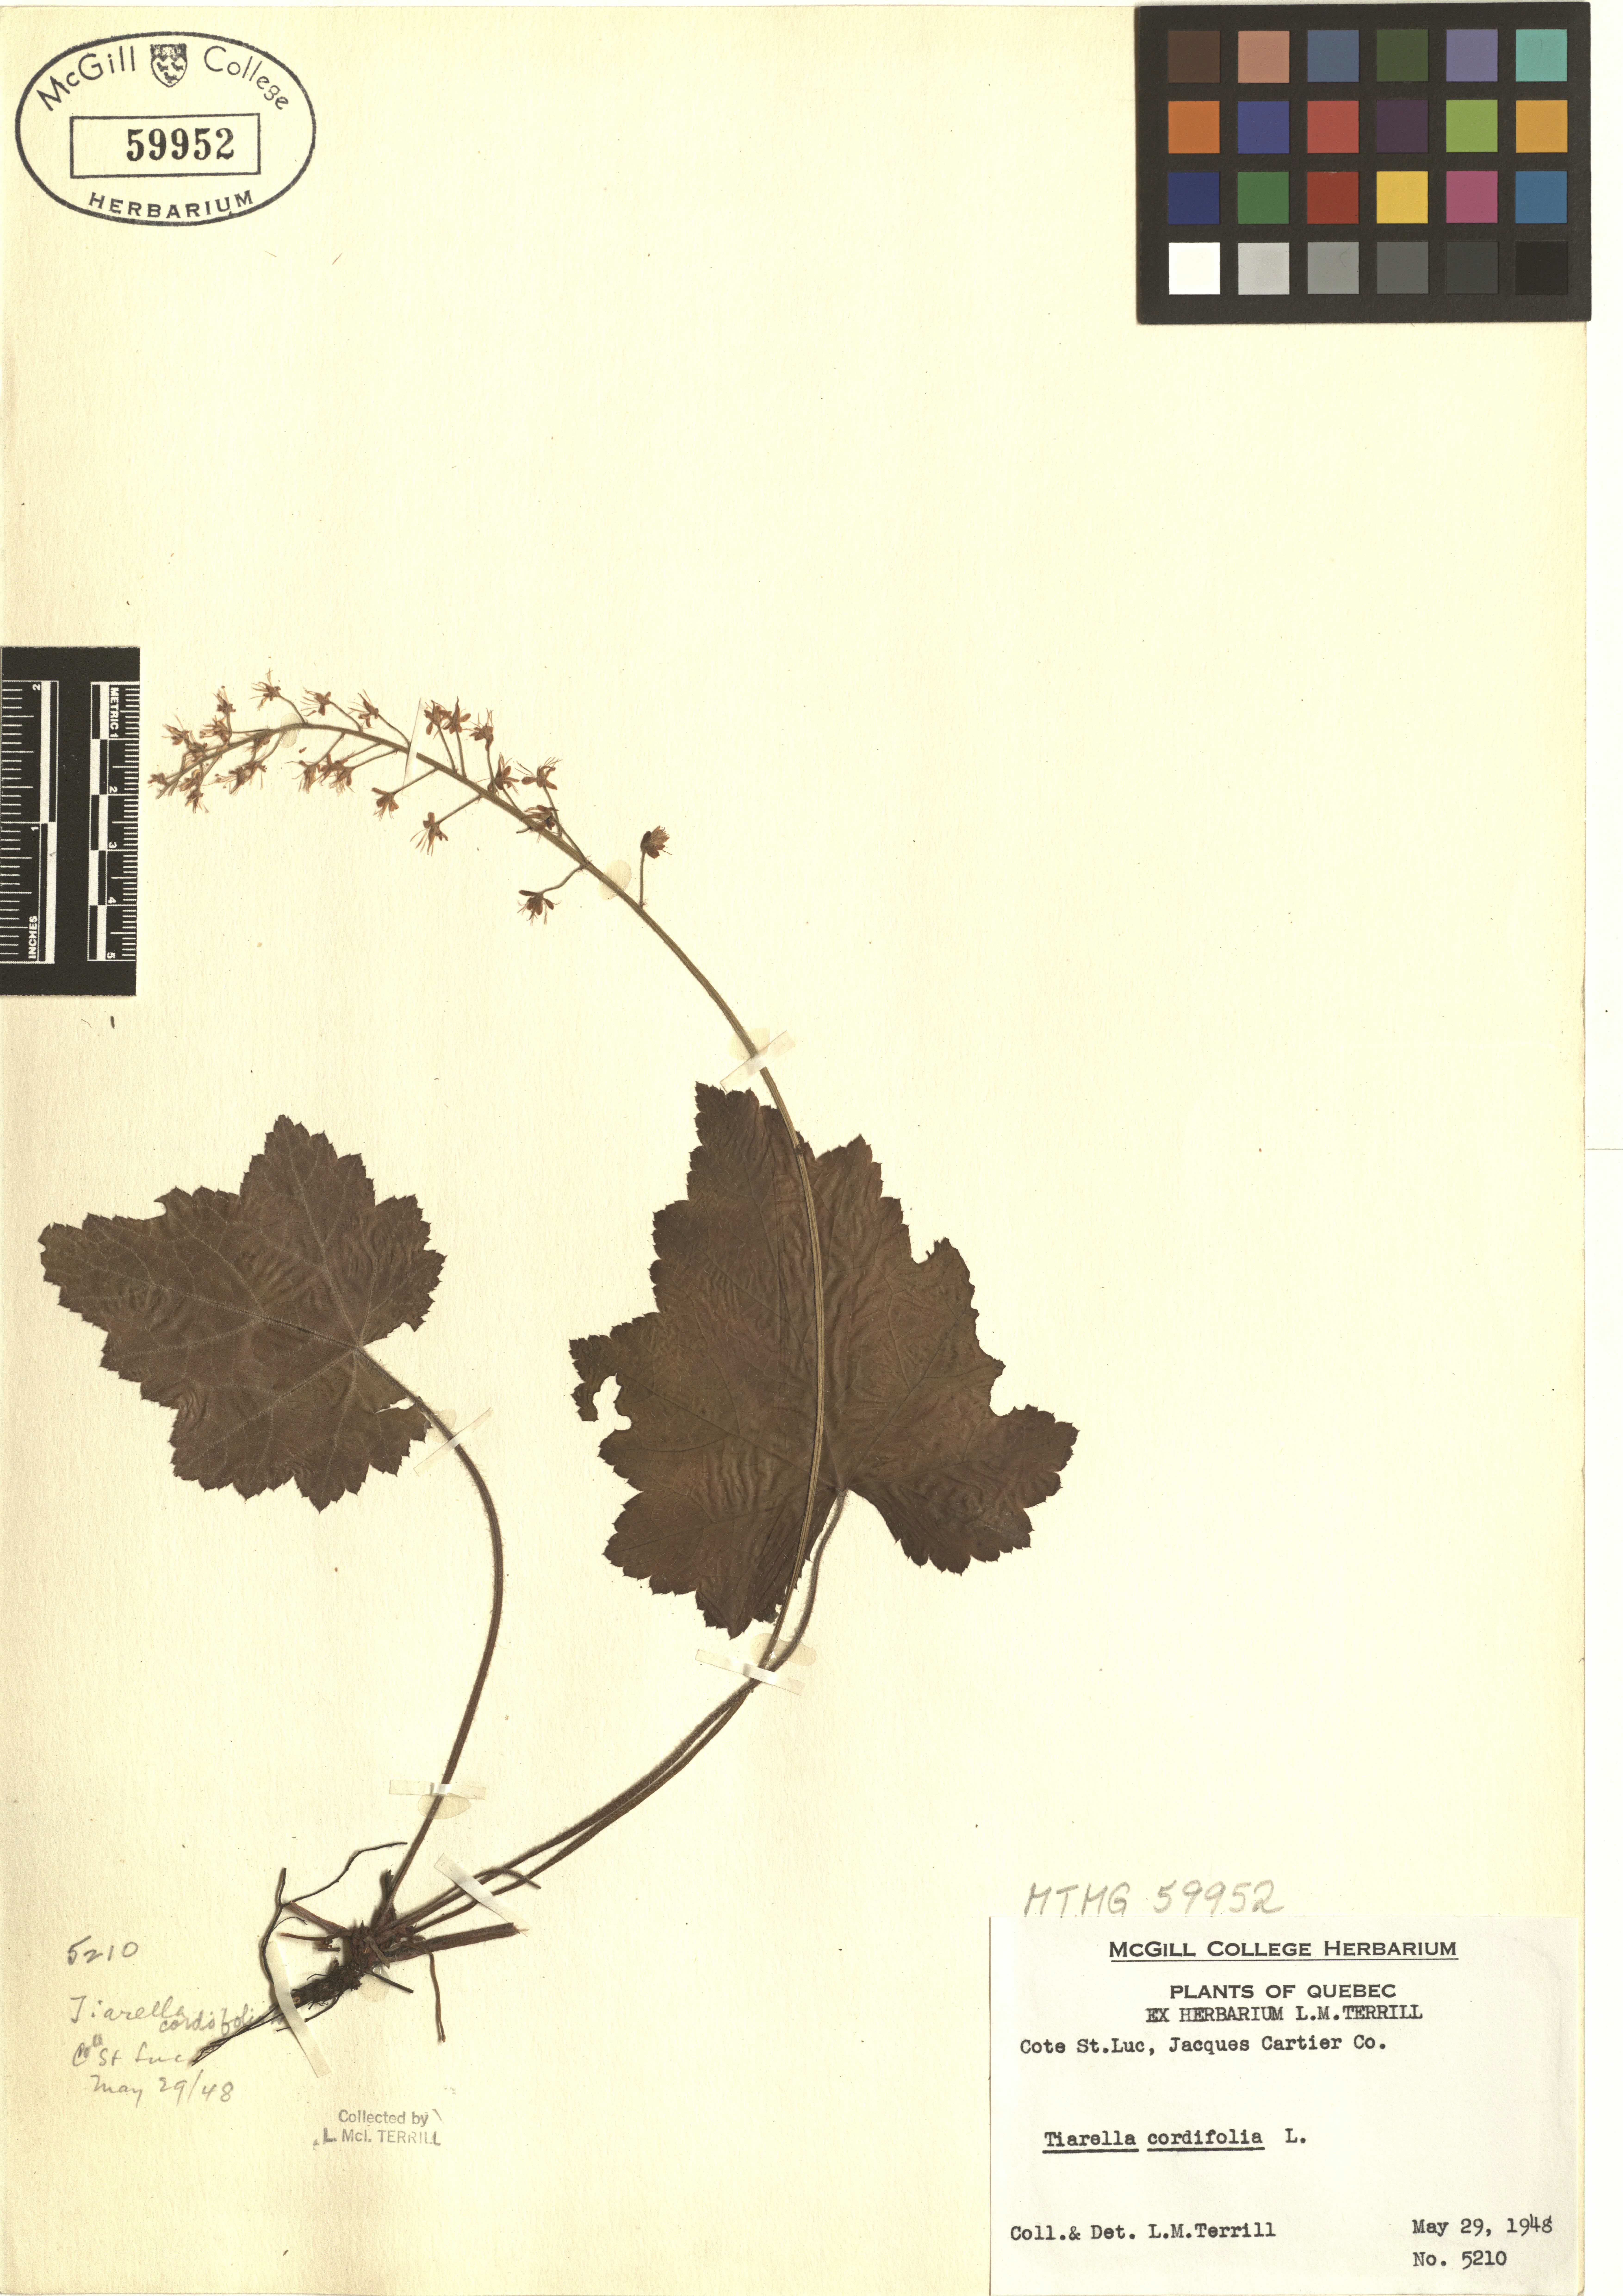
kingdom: Plantae
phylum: Tracheophyta
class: Magnoliopsida
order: Saxifragales
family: Saxifragaceae
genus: Tiarella
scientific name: Tiarella cordifolia
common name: Foamflower
